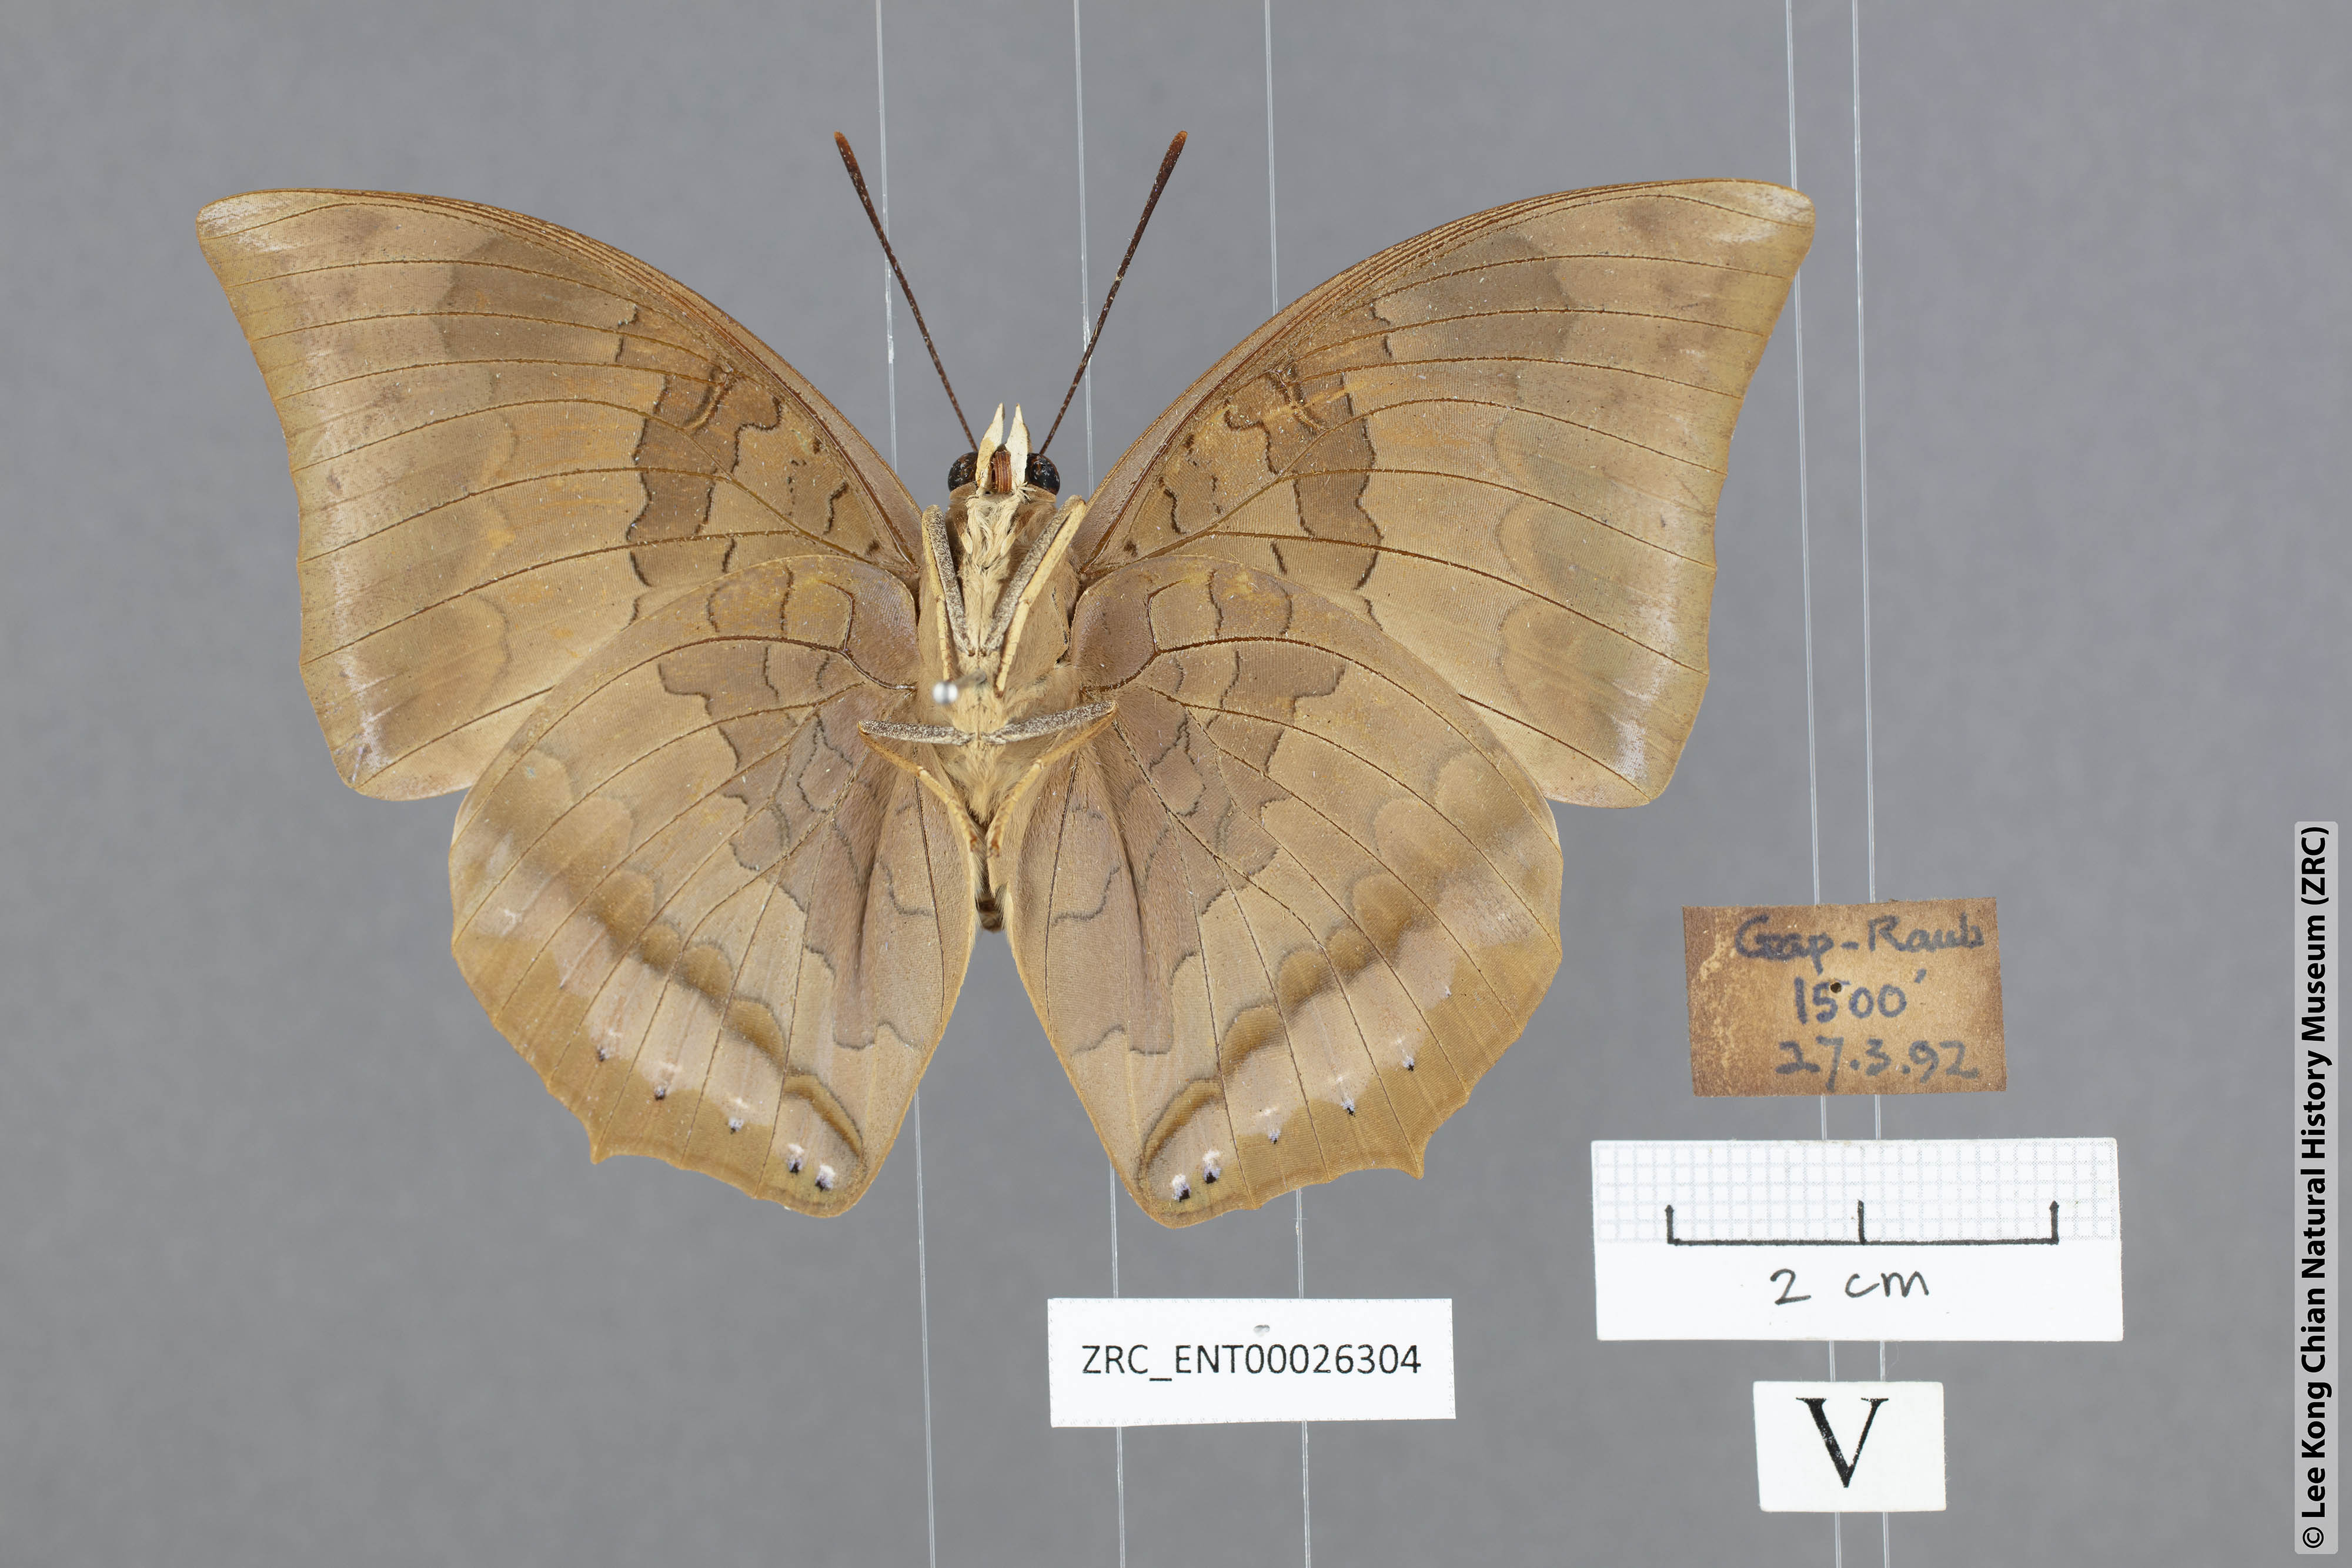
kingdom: Animalia
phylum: Arthropoda
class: Insecta
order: Lepidoptera
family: Nymphalidae
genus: Charaxes
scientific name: Charaxes bernardus
